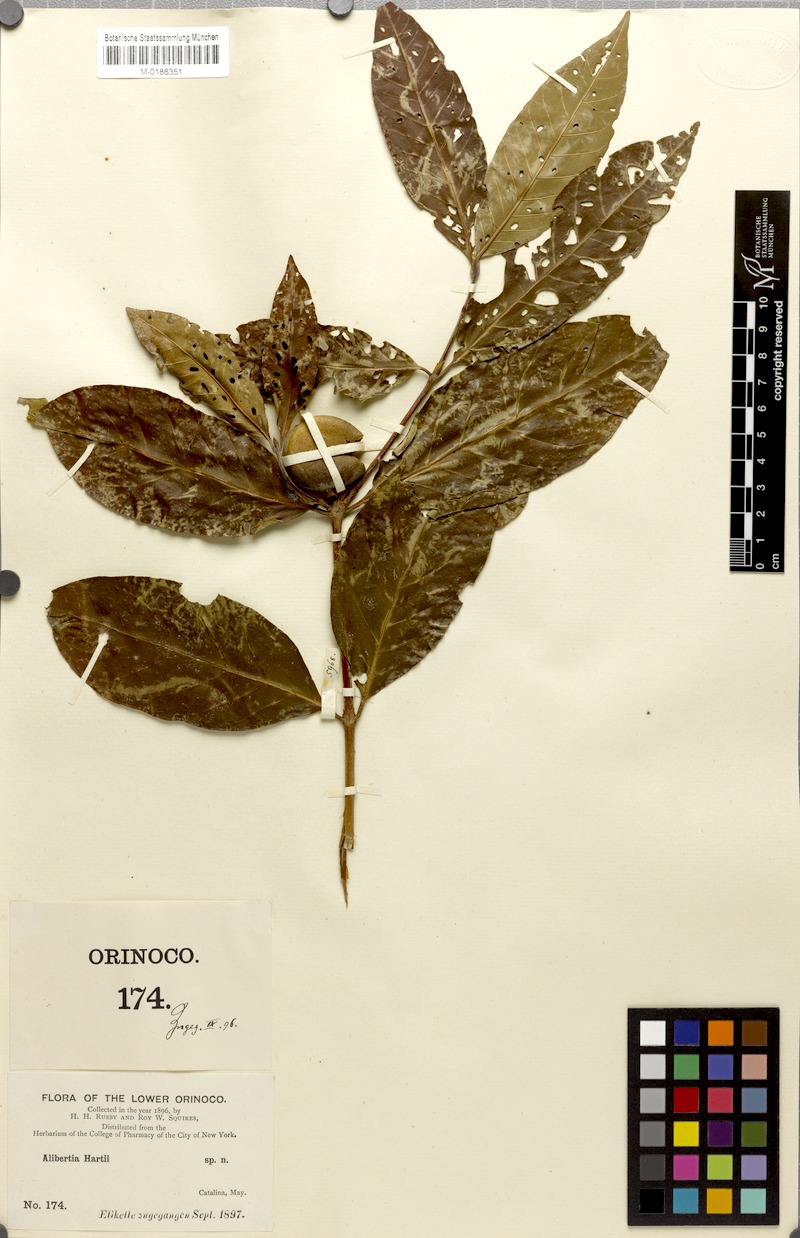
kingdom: Plantae
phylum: Tracheophyta
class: Magnoliopsida
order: Gentianales
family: Rubiaceae
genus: Alibertia
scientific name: Alibertia latifolia
